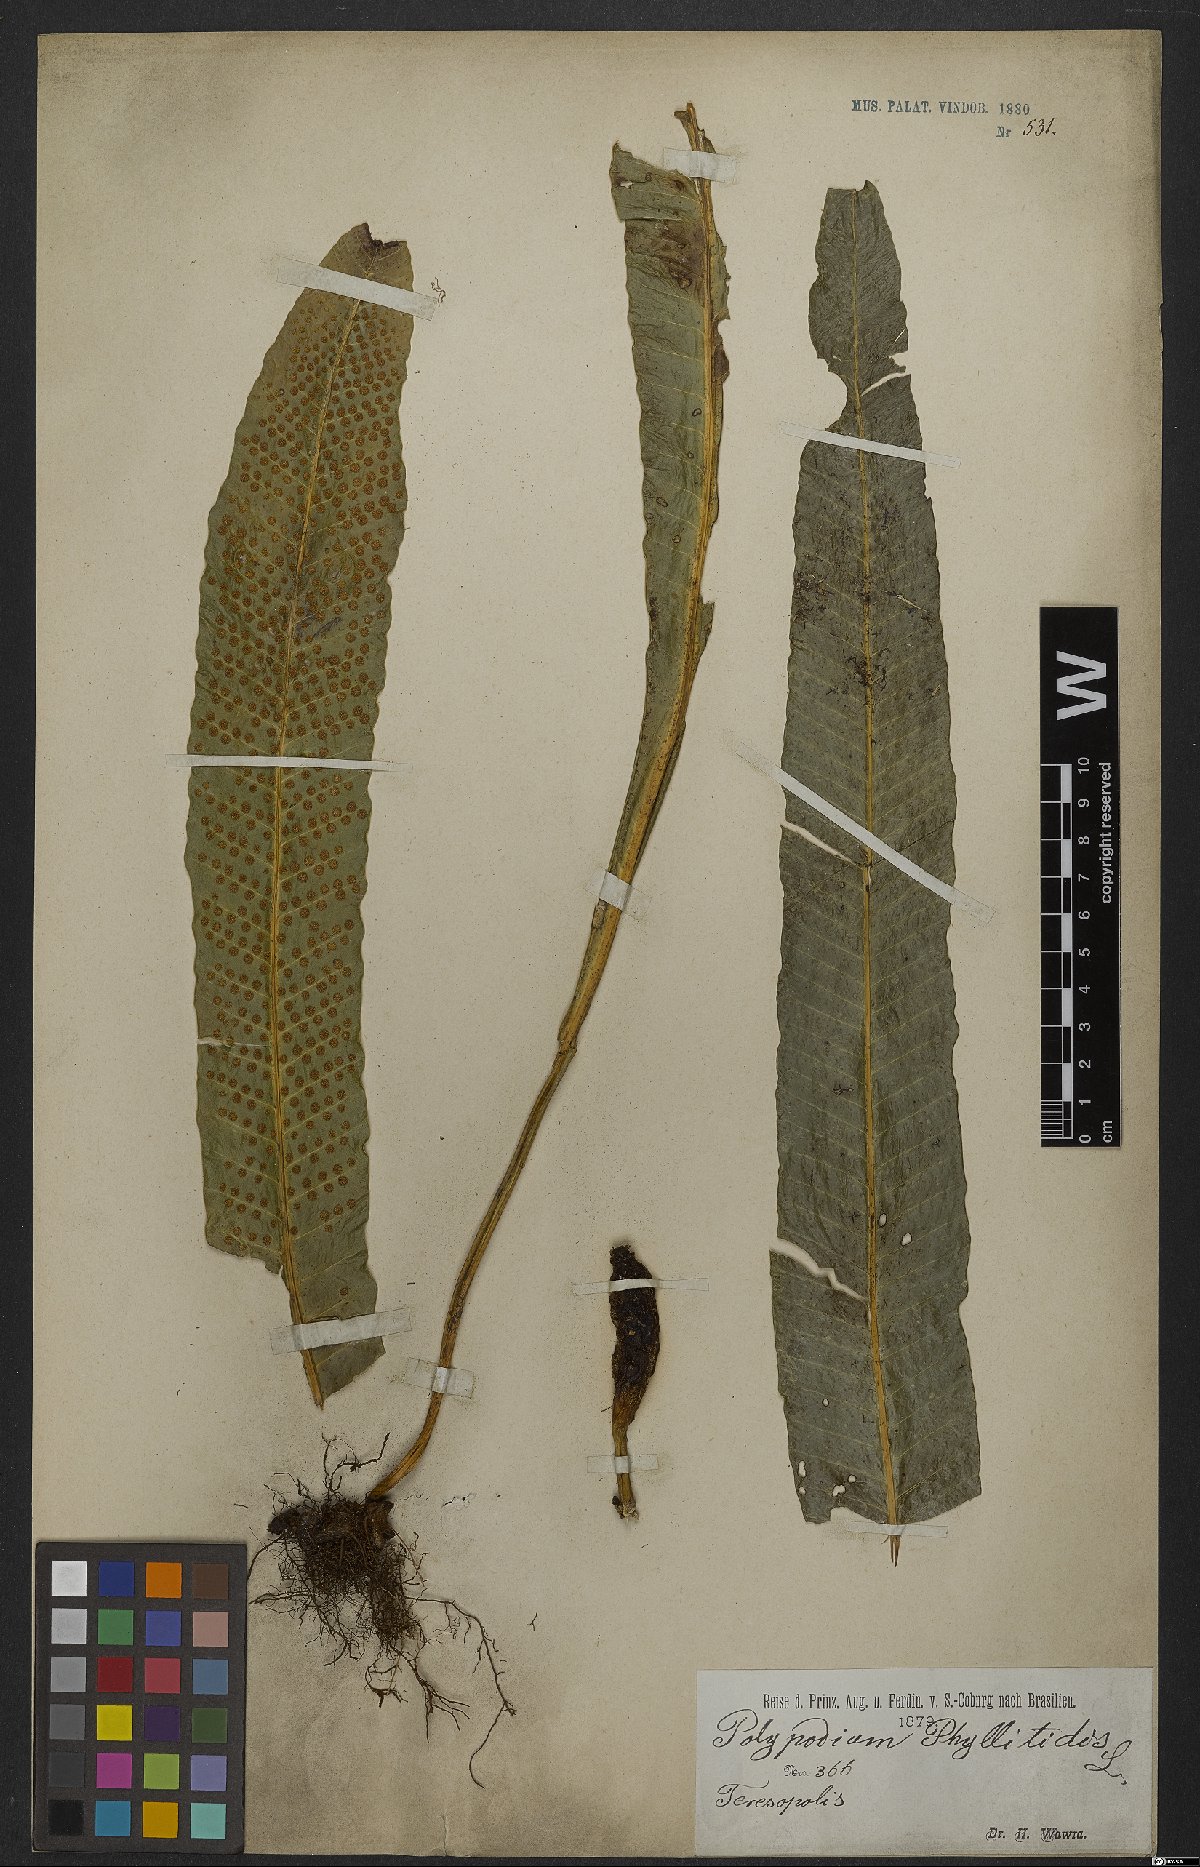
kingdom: Plantae
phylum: Tracheophyta
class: Polypodiopsida
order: Polypodiales
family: Polypodiaceae
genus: Campyloneurum
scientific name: Campyloneurum phyllitidis
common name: Cow-tongue fern
